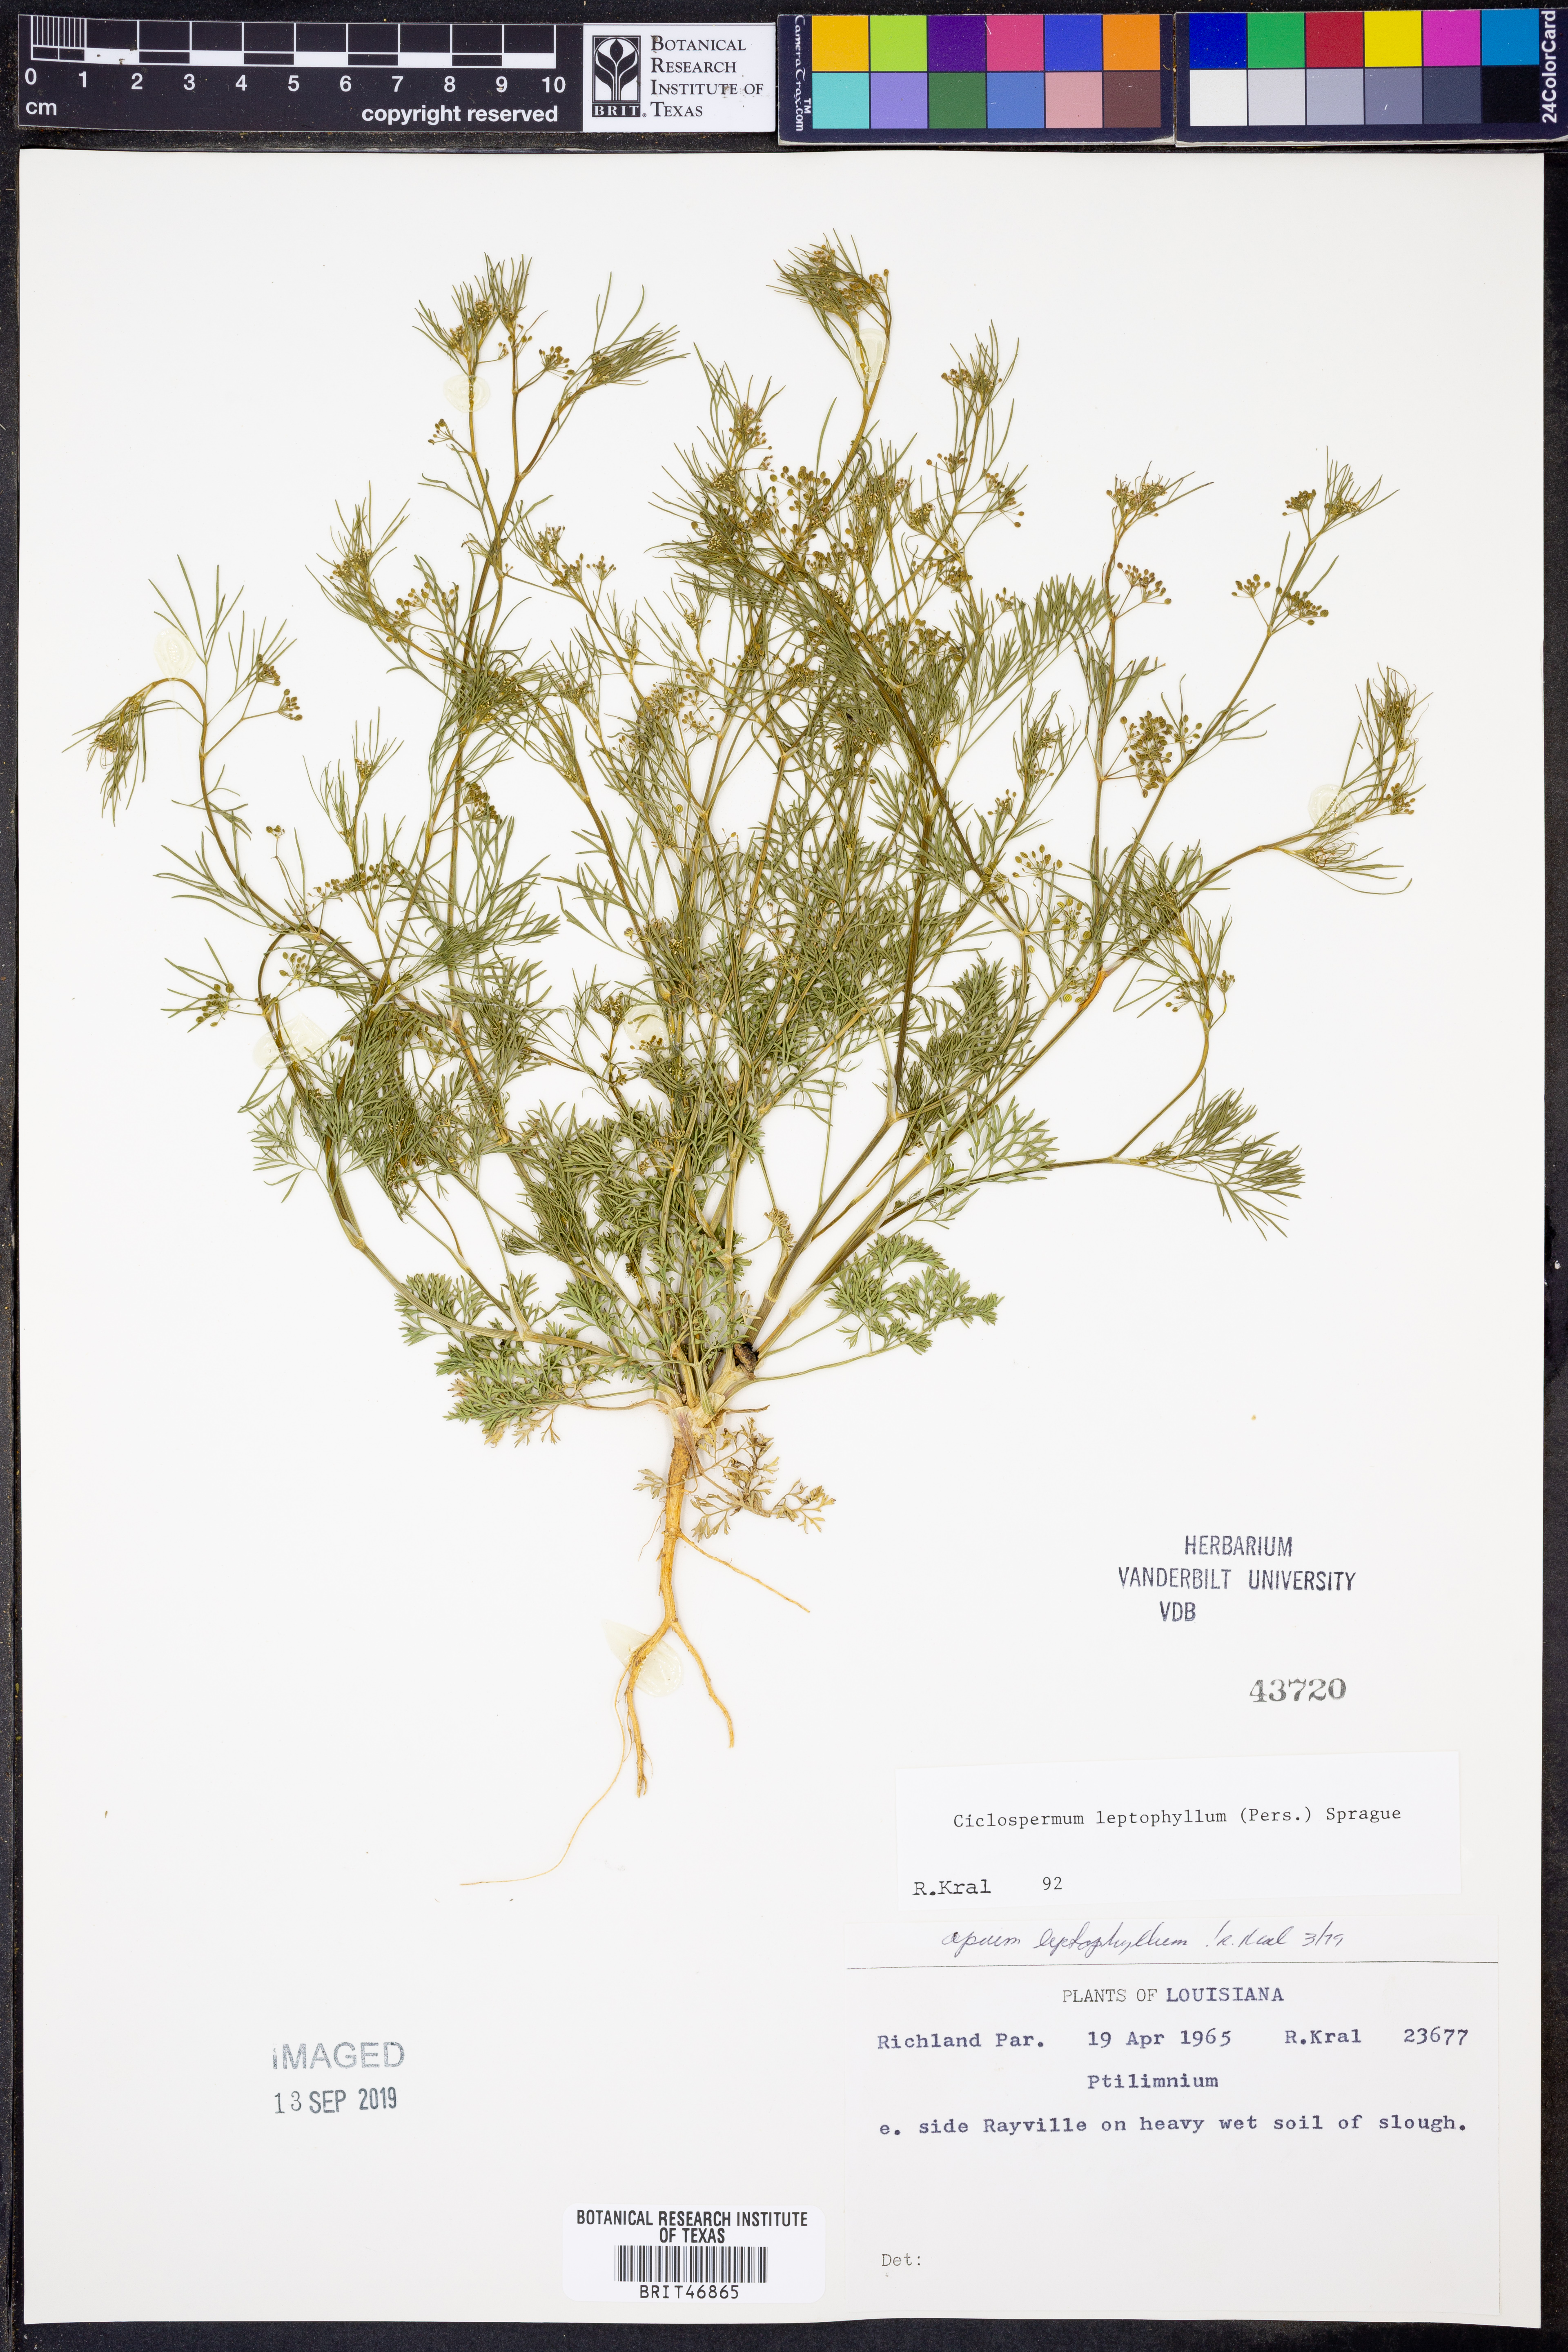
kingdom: Plantae
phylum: Tracheophyta
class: Magnoliopsida
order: Apiales
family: Apiaceae
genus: Cyclospermum
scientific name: Cyclospermum leptophyllum
